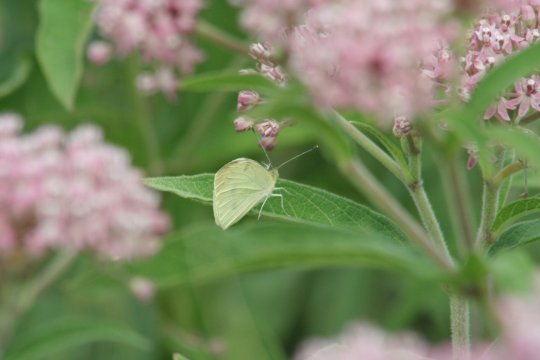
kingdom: Animalia
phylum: Arthropoda
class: Insecta
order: Lepidoptera
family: Pieridae
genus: Pieris
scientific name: Pieris rapae
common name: Cabbage White
